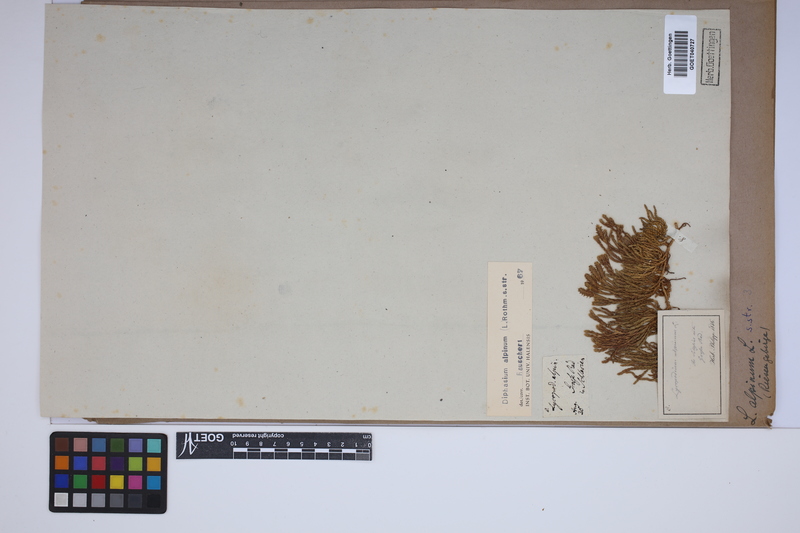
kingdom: Plantae
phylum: Tracheophyta
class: Lycopodiopsida
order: Lycopodiales
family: Lycopodiaceae
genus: Diphasiastrum
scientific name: Diphasiastrum alpinum
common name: Alpine clubmoss
